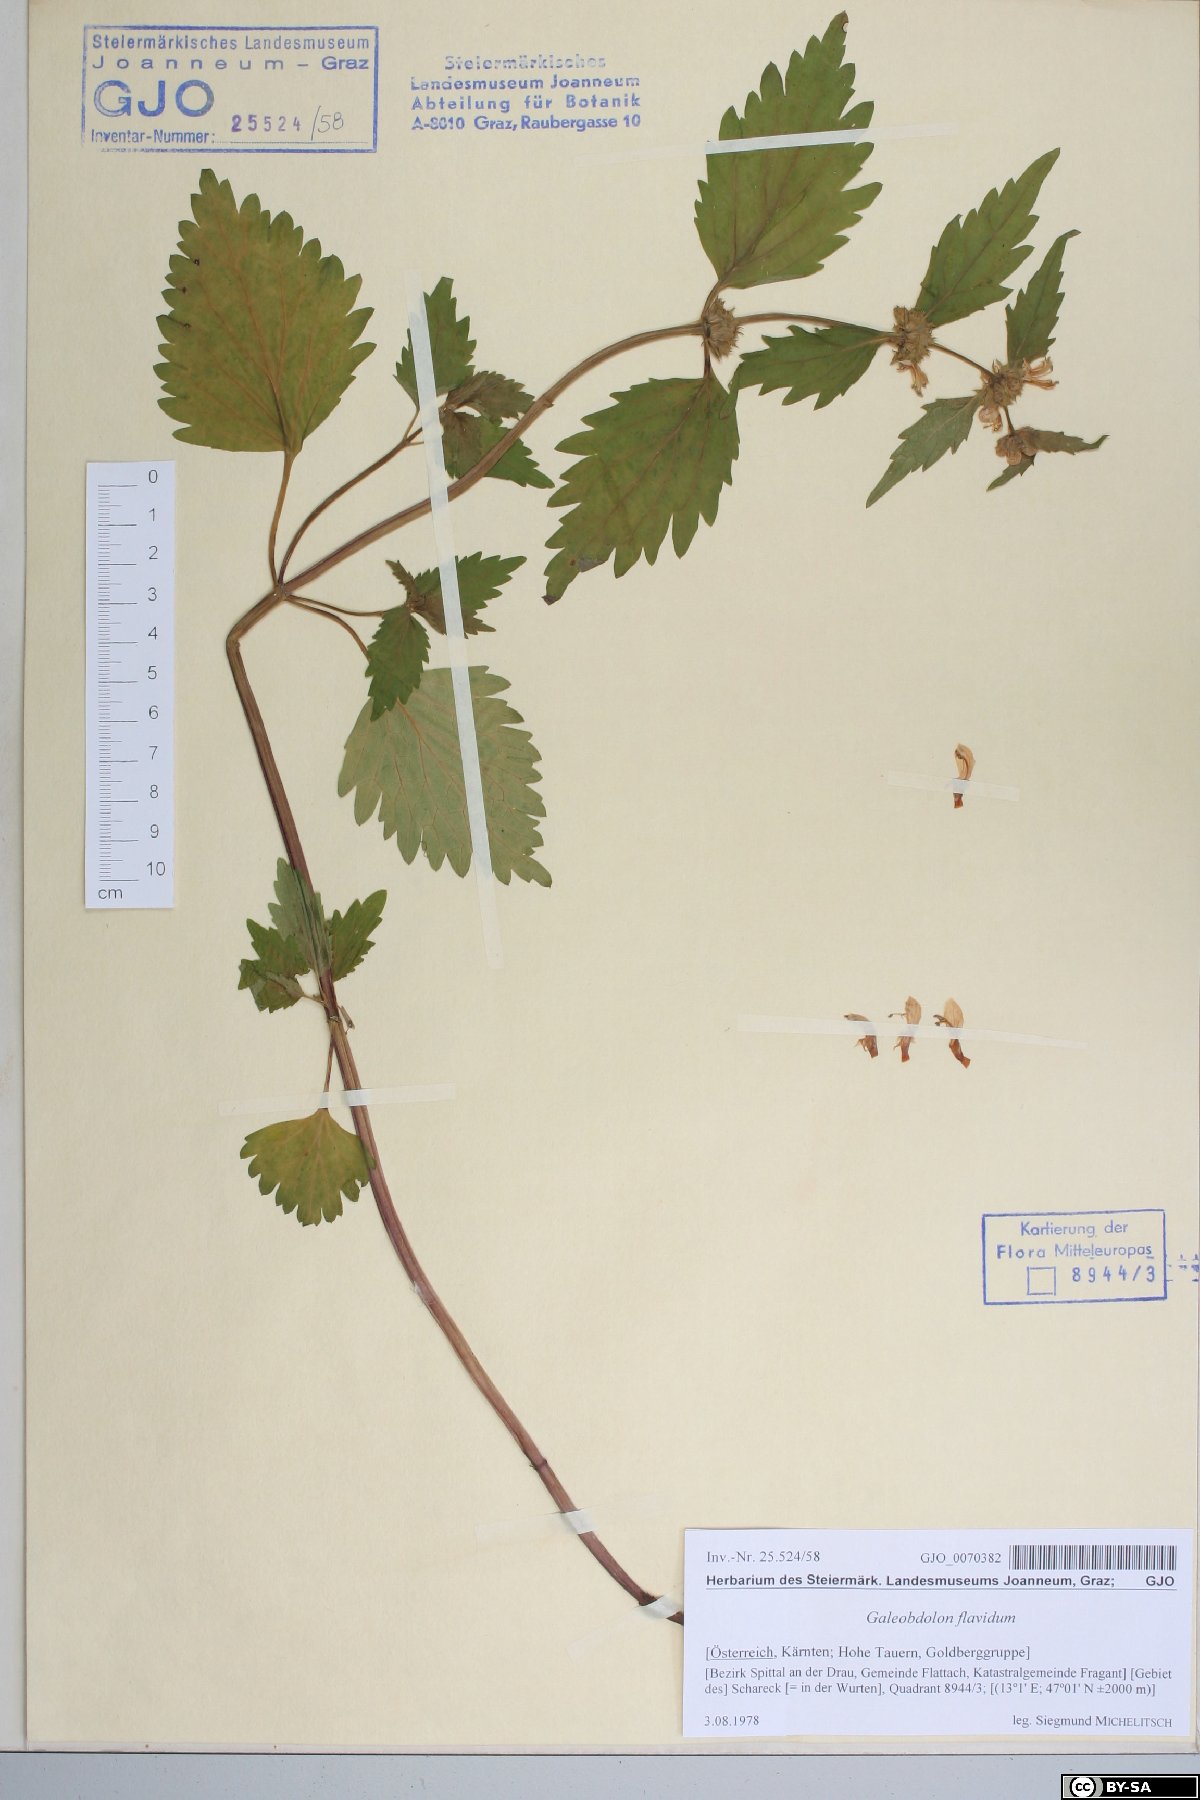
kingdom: Plantae
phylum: Tracheophyta
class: Magnoliopsida
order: Lamiales
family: Lamiaceae
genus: Lamium
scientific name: Lamium galeobdolon
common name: Yellow archangel
